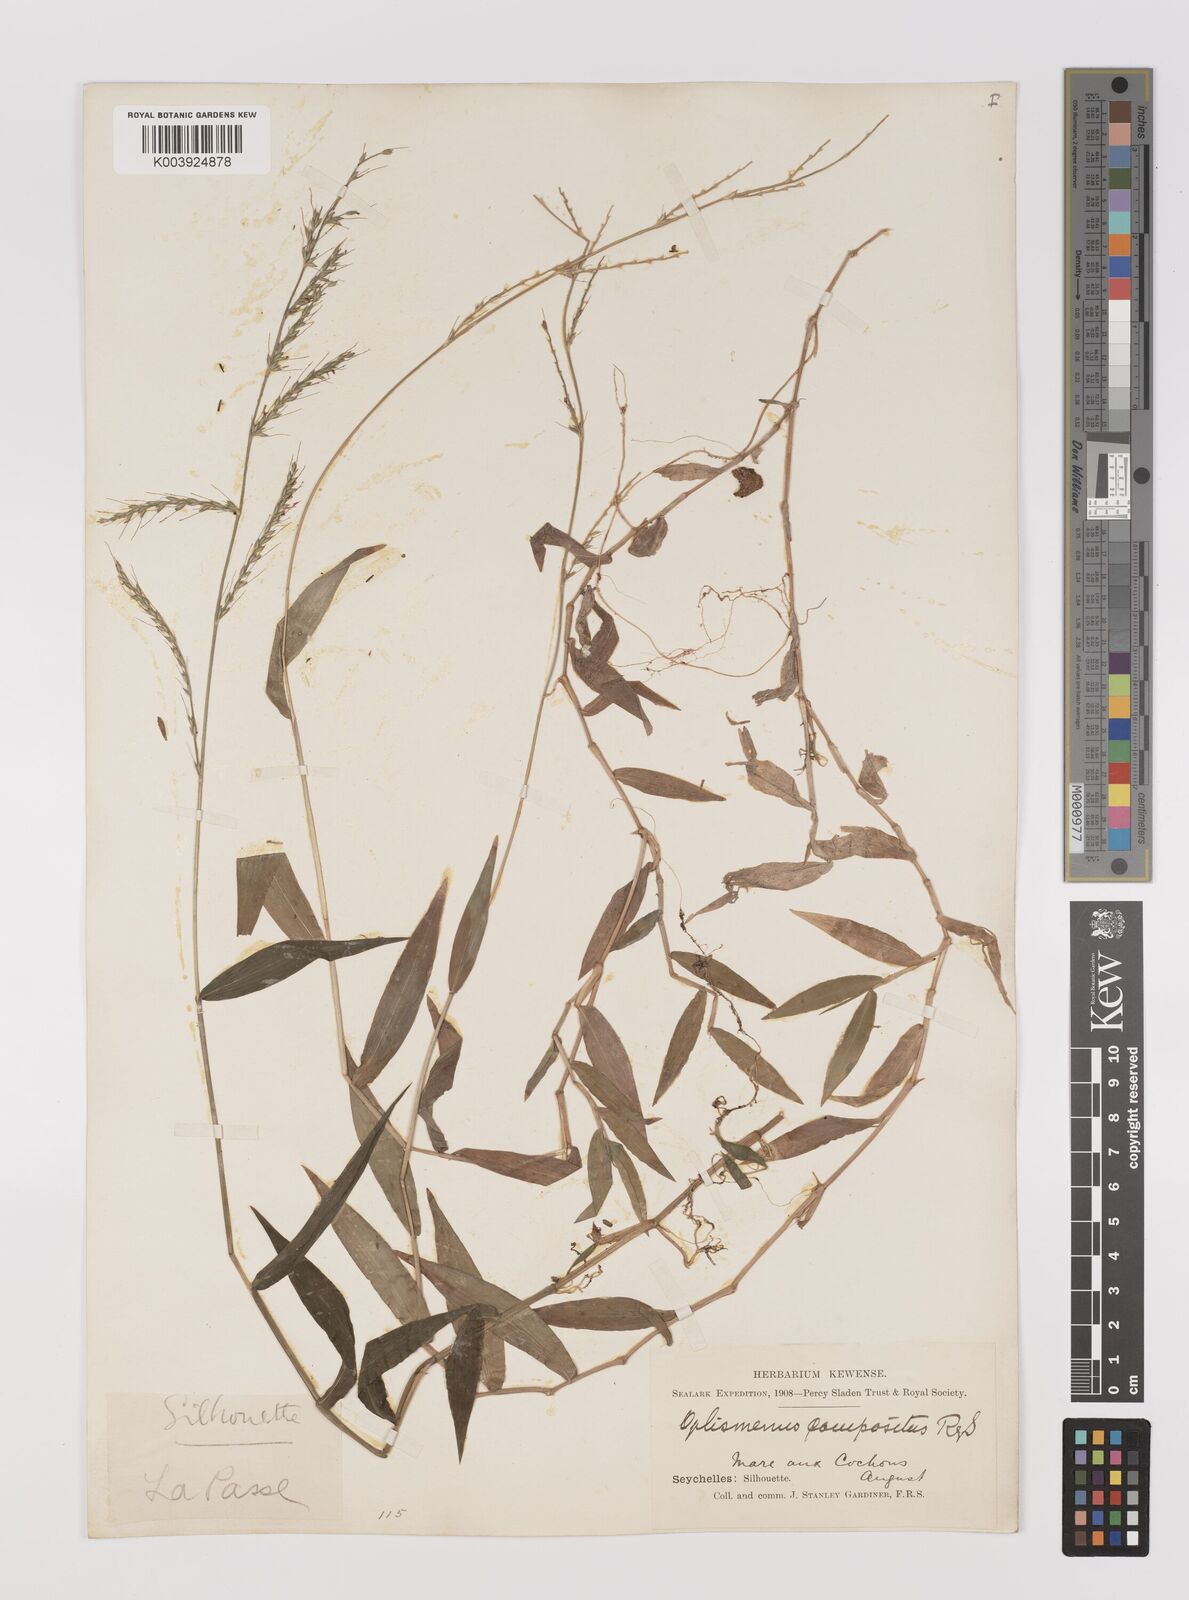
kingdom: Plantae
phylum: Tracheophyta
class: Liliopsida
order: Poales
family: Poaceae
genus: Oplismenus
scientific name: Oplismenus compositus
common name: Running mountain grass
